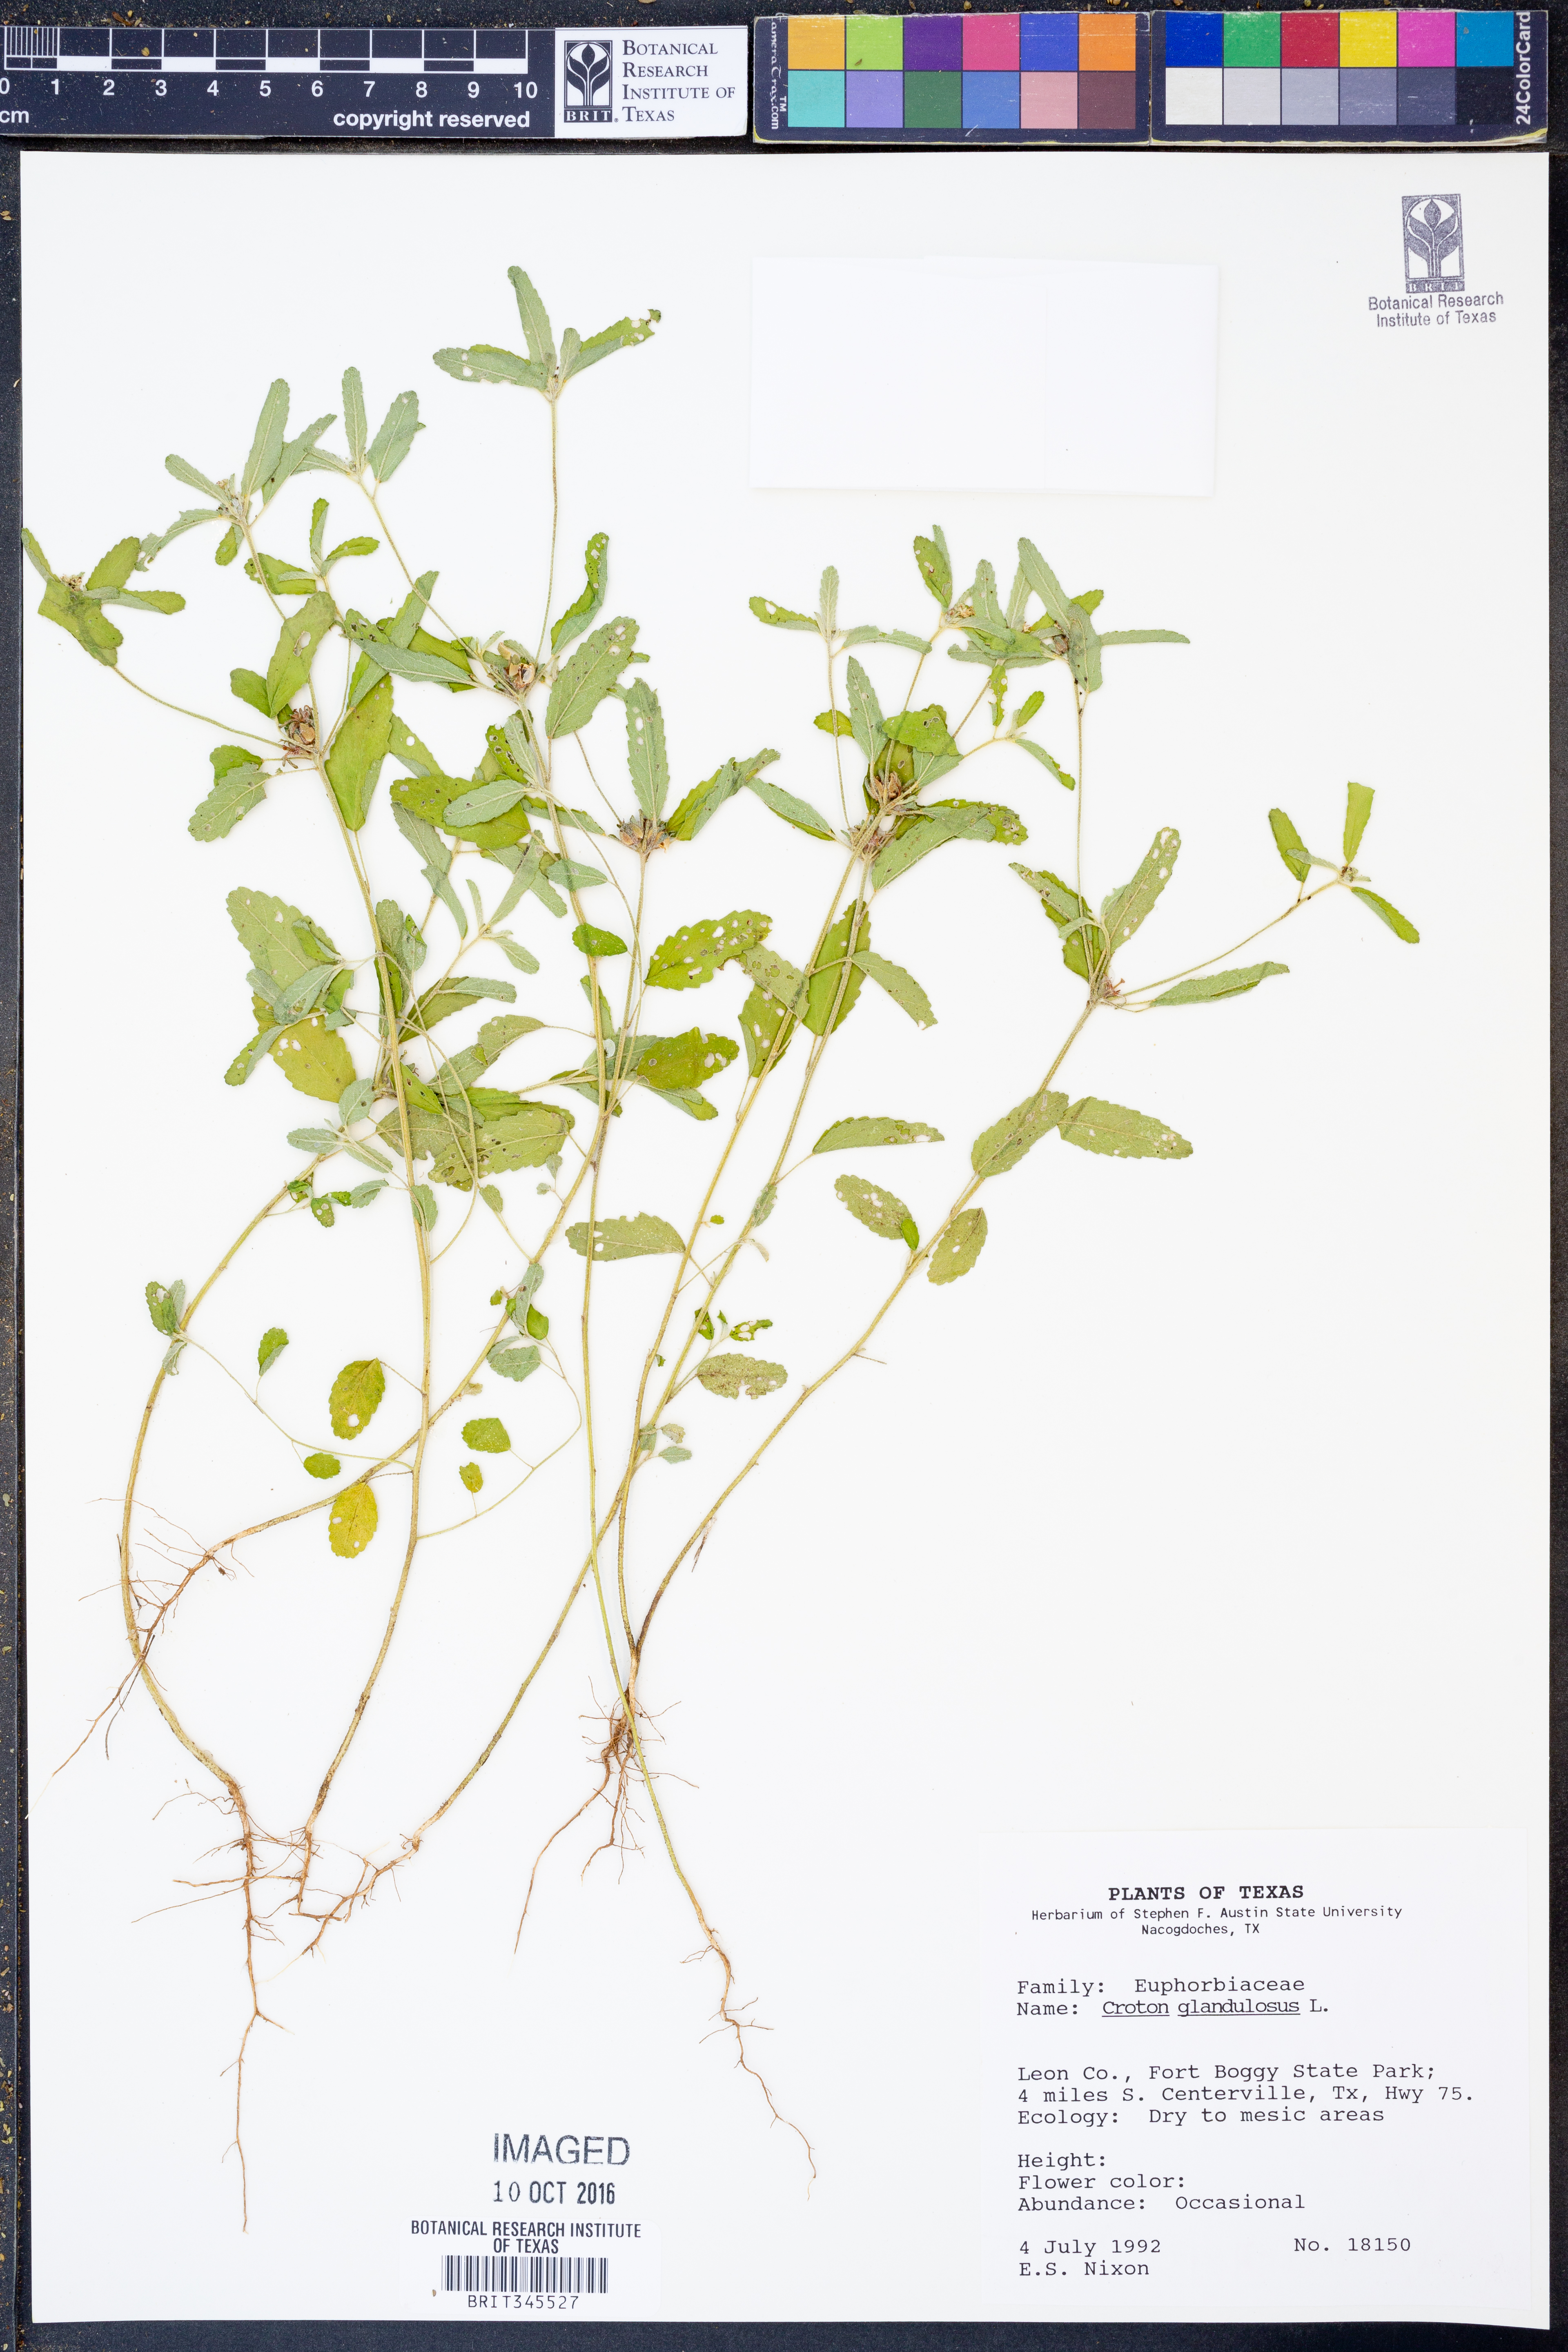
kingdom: Plantae
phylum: Tracheophyta
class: Magnoliopsida
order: Malpighiales
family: Euphorbiaceae
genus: Croton
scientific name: Croton glandulosus
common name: Tropic croton
